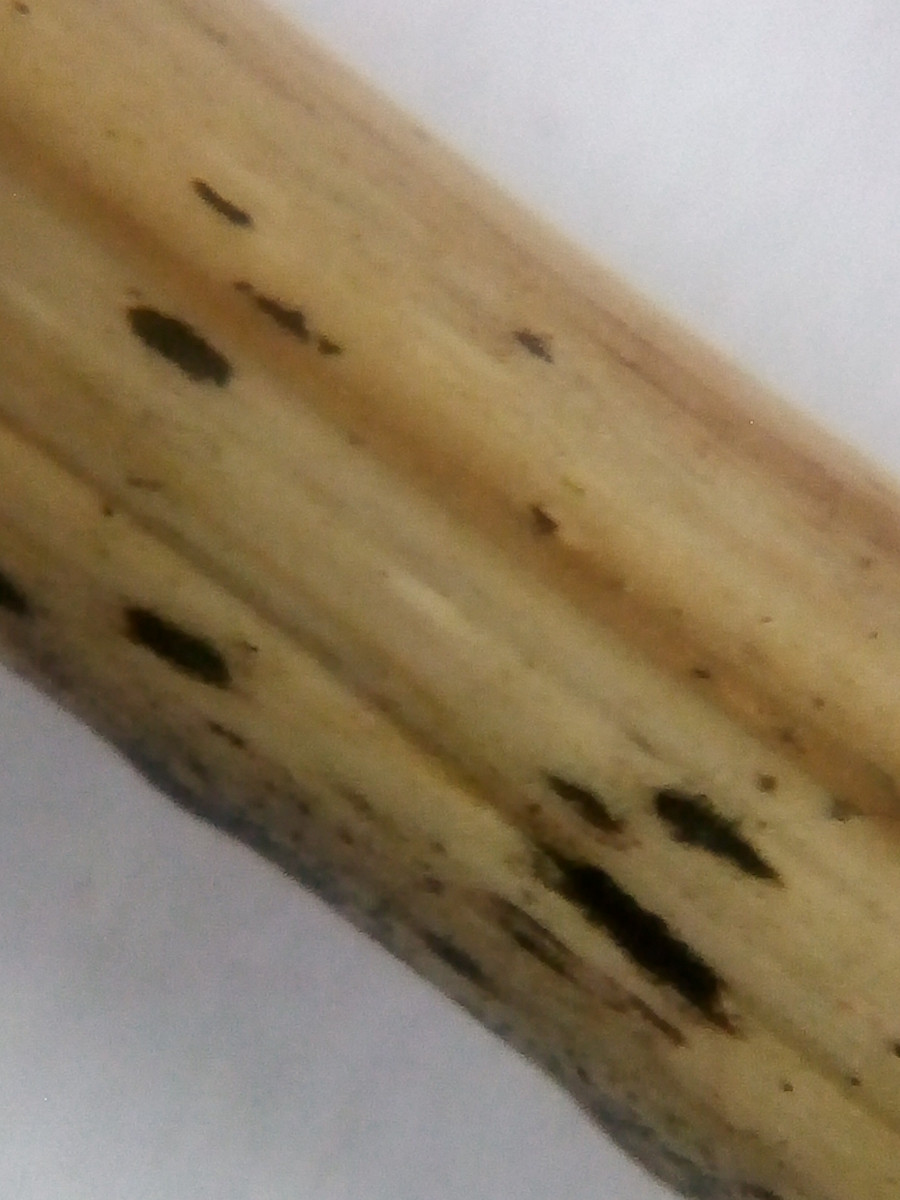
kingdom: Fungi
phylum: Ascomycota
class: Sordariomycetes
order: Xylariales
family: Apiosporaceae
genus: Apiospora
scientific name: Apiospora arundinis
